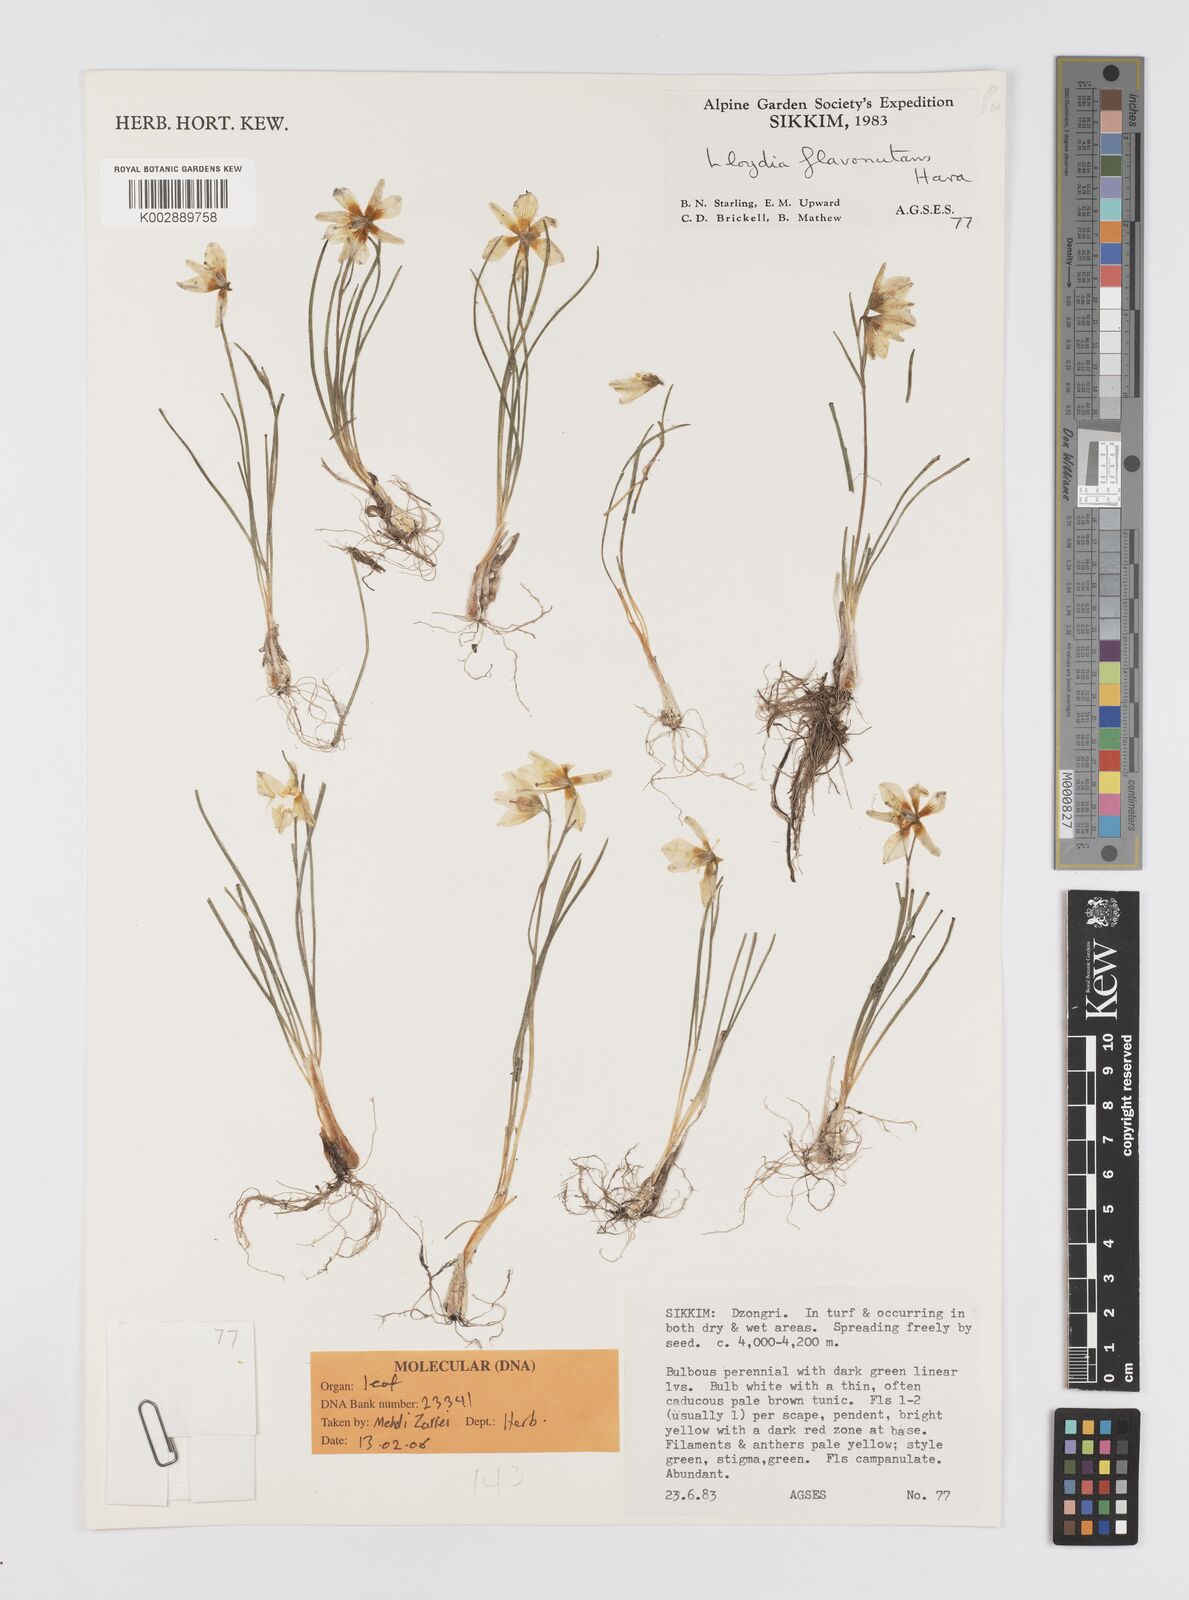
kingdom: Plantae
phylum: Tracheophyta
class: Liliopsida
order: Liliales
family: Liliaceae
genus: Gagea
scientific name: Gagea flavonutans
